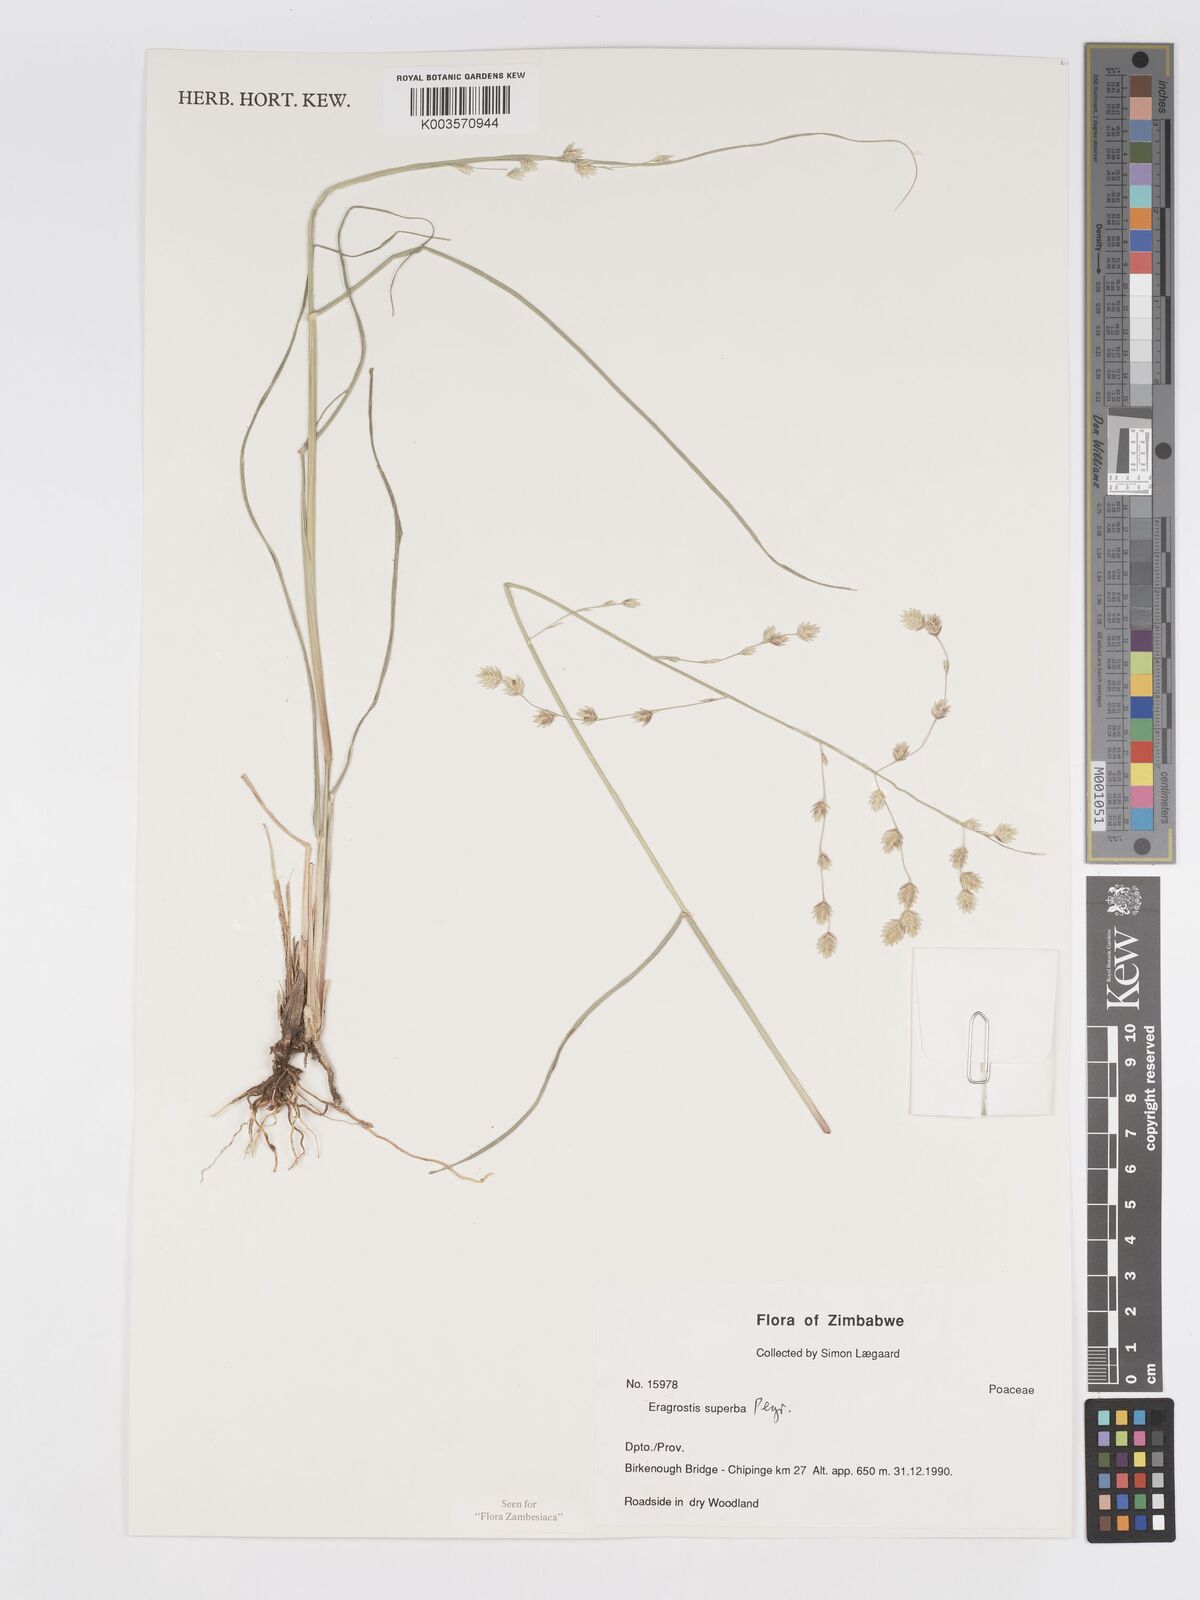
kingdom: Plantae
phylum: Tracheophyta
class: Liliopsida
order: Poales
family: Poaceae
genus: Eragrostis
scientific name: Eragrostis superba
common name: Wilman lovegrass
